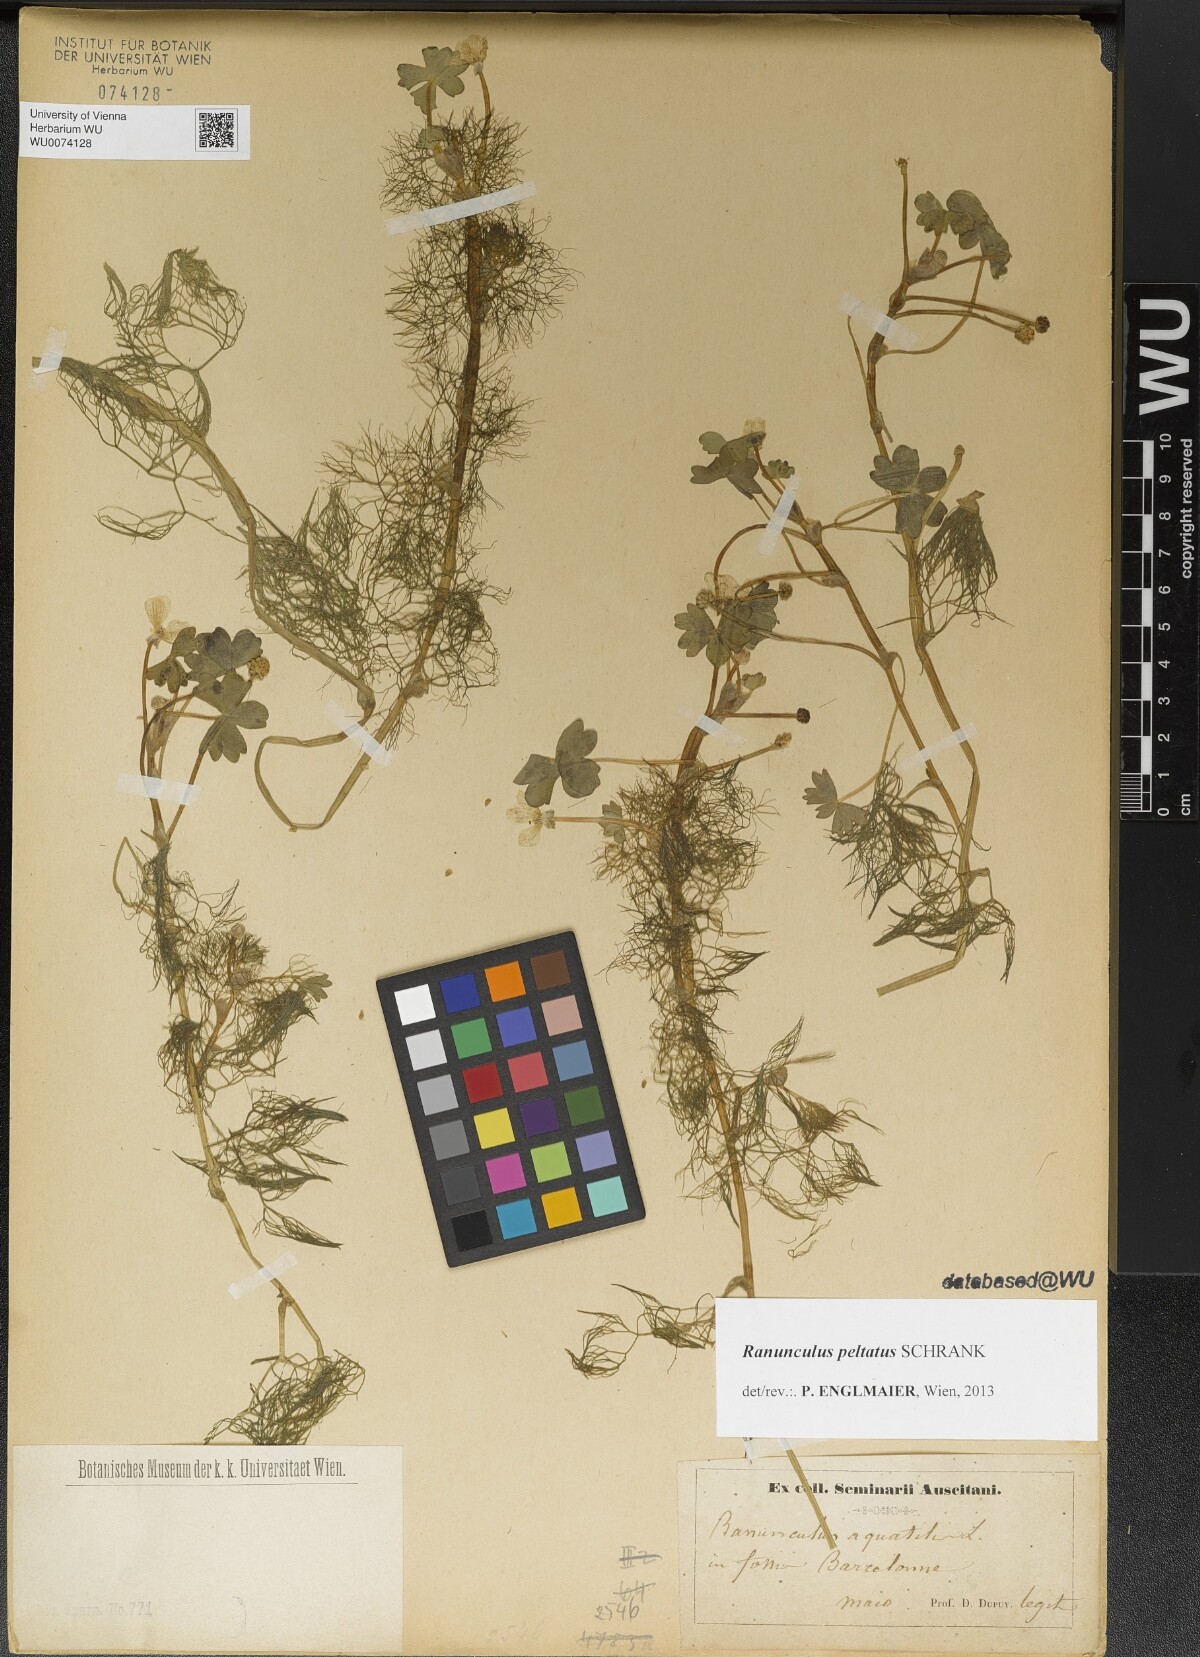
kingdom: Plantae
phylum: Tracheophyta
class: Magnoliopsida
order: Ranunculales
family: Ranunculaceae
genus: Ranunculus
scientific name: Ranunculus peltatus
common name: Pond water-crowfoot
